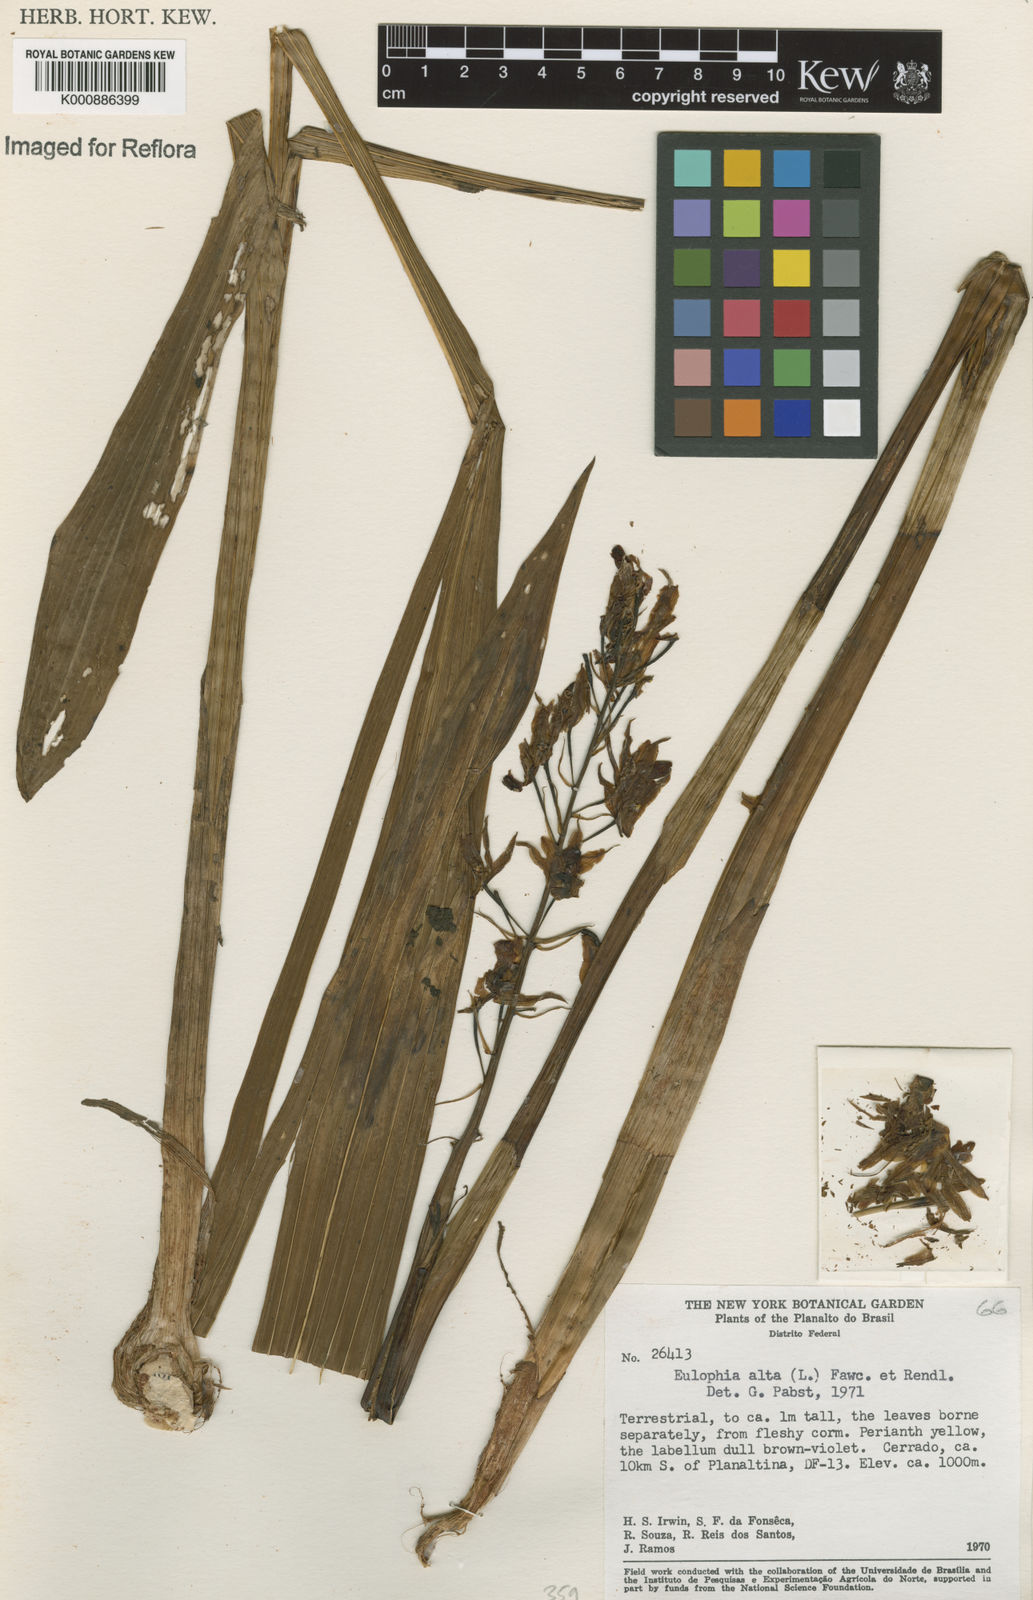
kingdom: Plantae
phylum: Tracheophyta
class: Liliopsida
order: Asparagales
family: Orchidaceae
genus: Eulophia
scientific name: Eulophia alta
